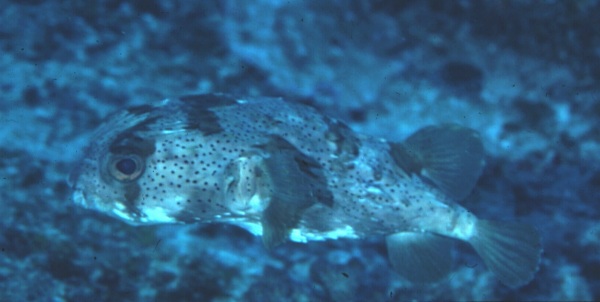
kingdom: Animalia
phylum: Chordata
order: Tetraodontiformes
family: Diodontidae
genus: Diodon
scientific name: Diodon holocanthus
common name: Balloonfish
